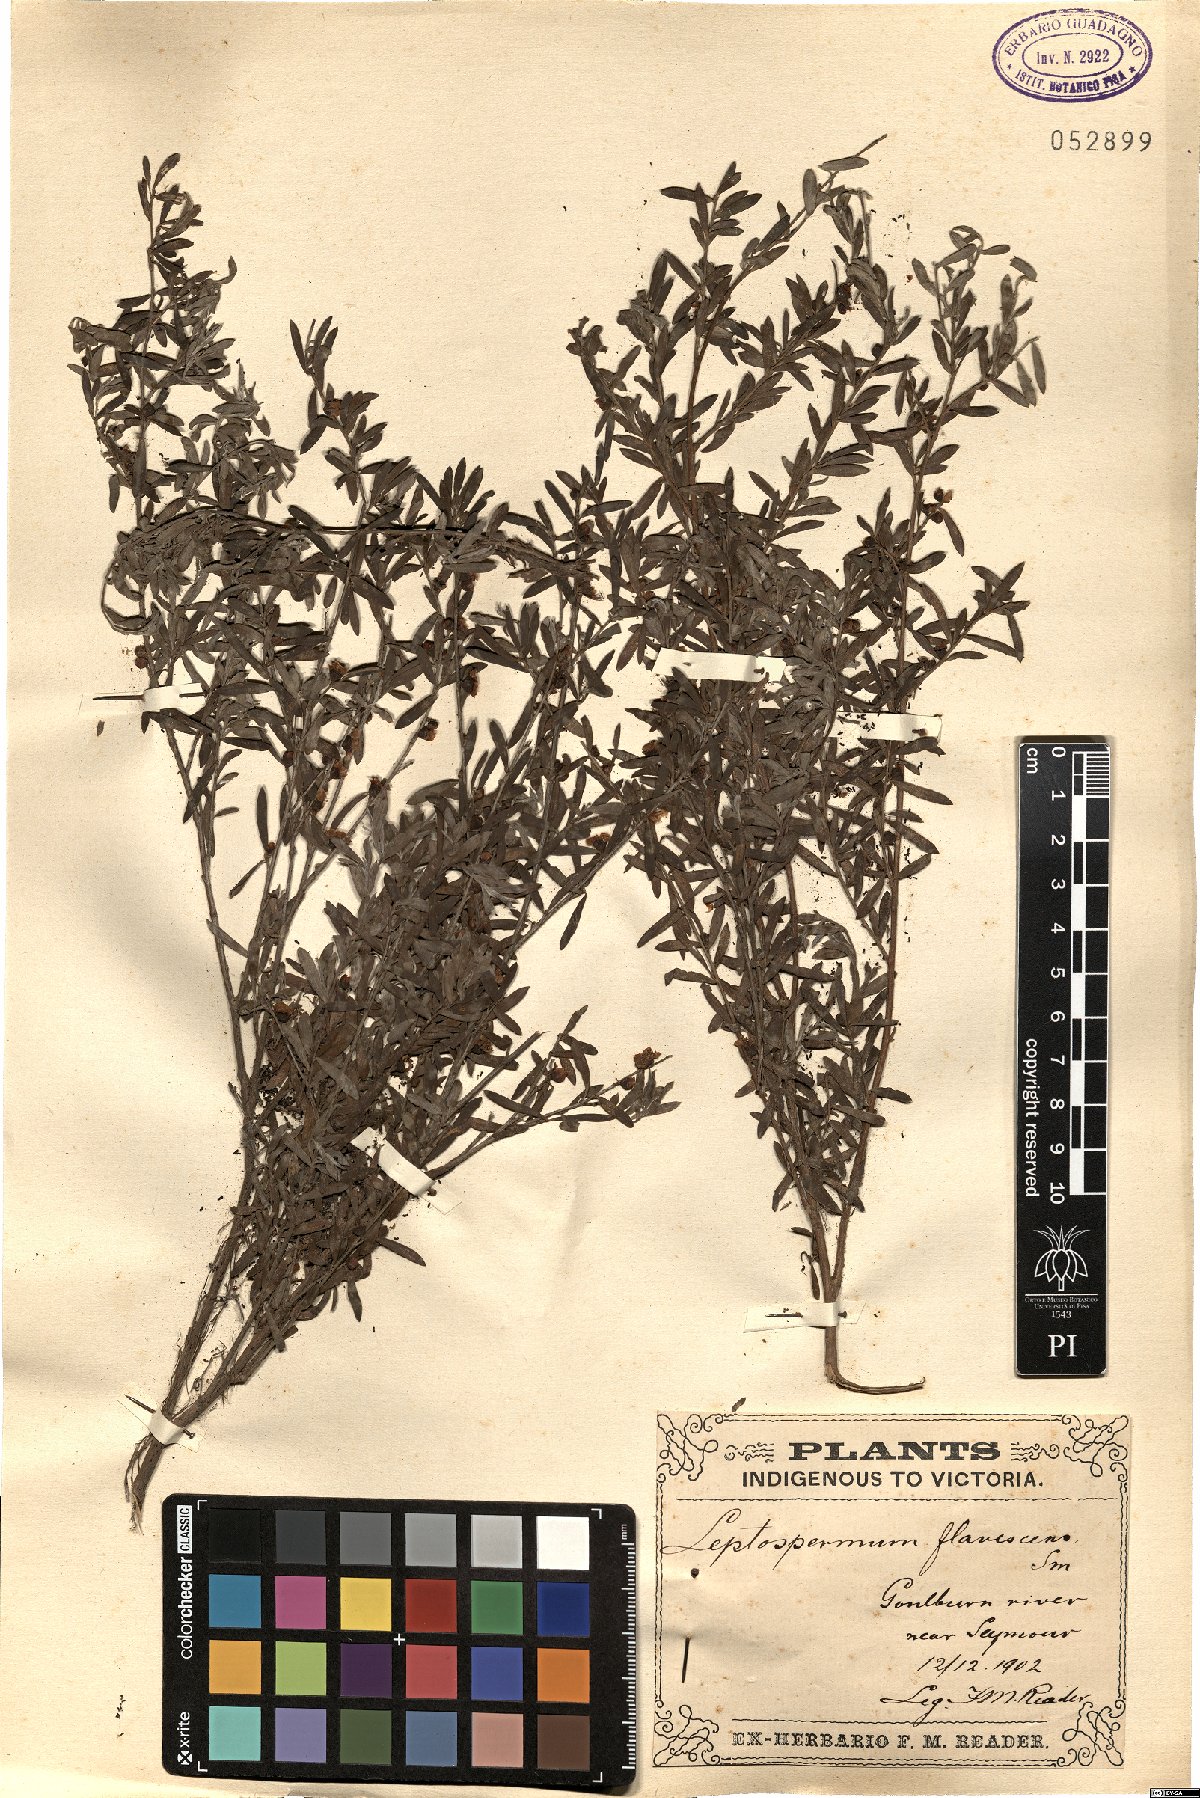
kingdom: Plantae
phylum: Tracheophyta
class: Magnoliopsida
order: Myrtales
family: Myrtaceae
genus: Leptospermum
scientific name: Leptospermum polygalifolium
